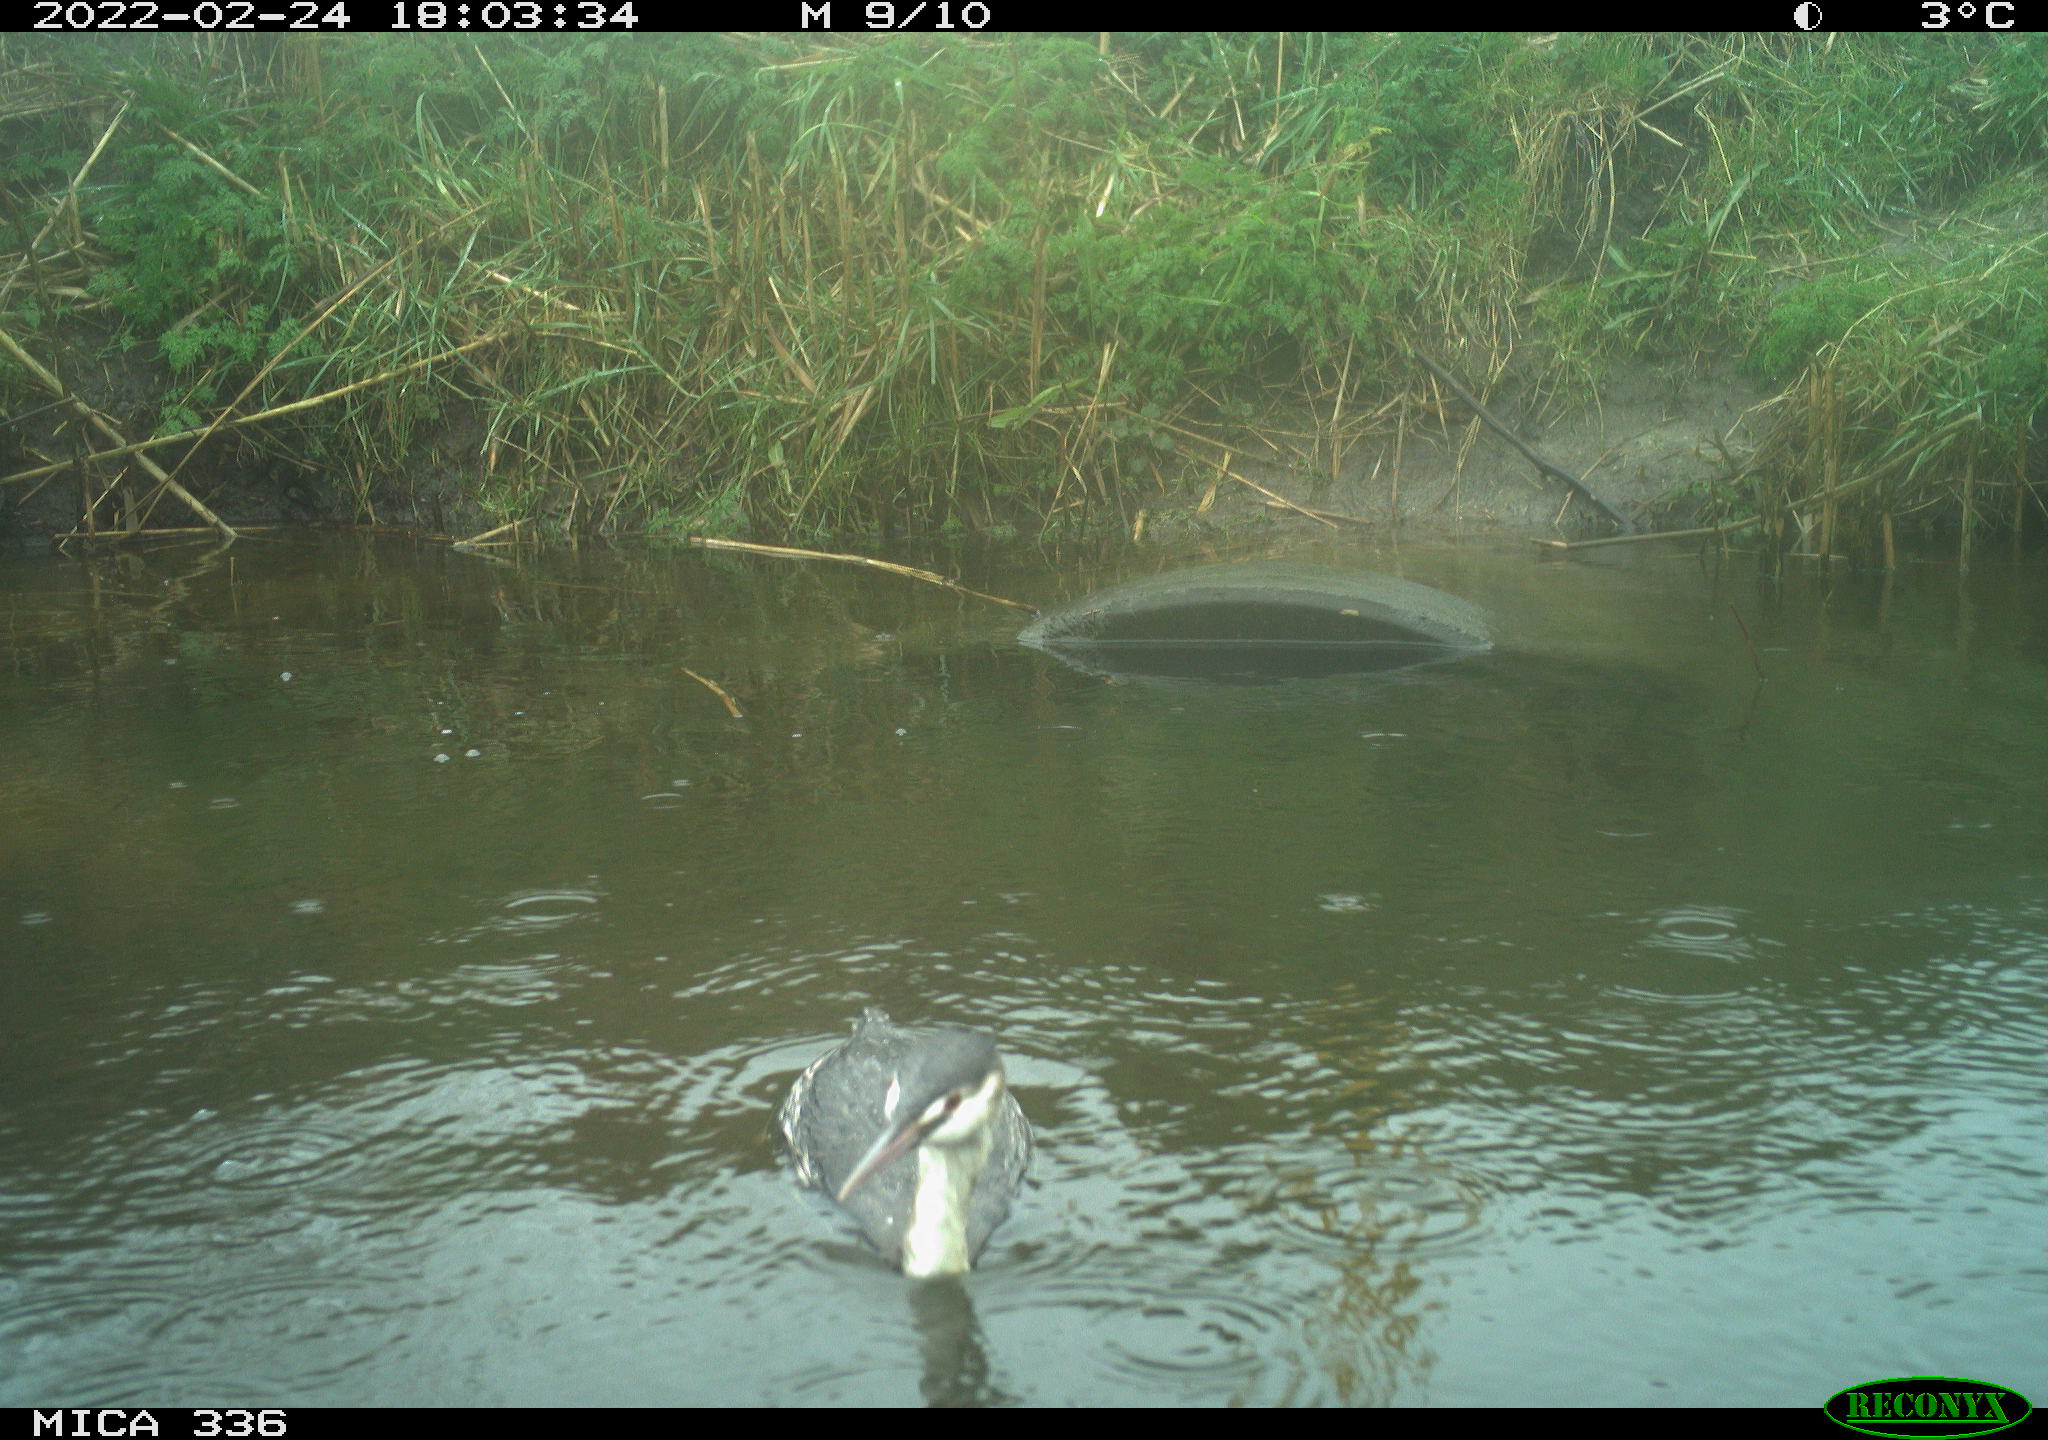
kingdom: Animalia
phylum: Chordata
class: Aves
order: Podicipediformes
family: Podicipedidae
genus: Podiceps
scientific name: Podiceps cristatus
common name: Great crested grebe
